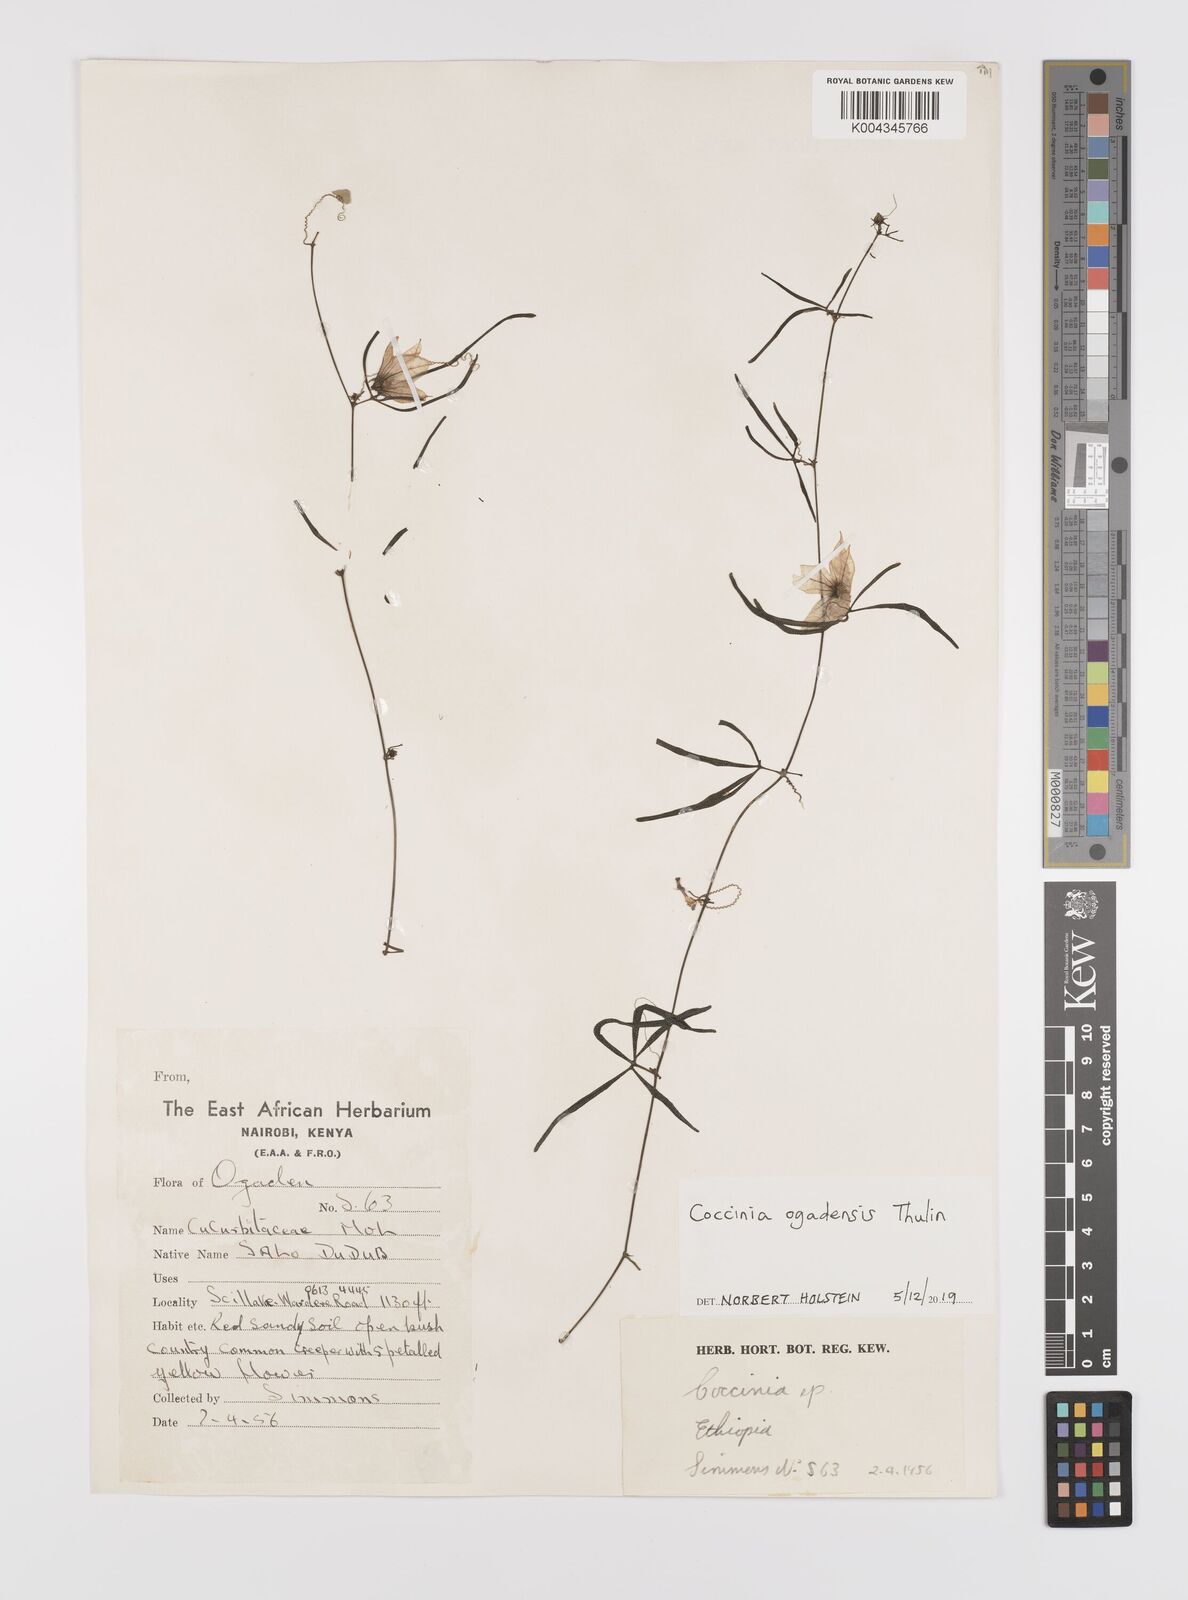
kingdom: Plantae
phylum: Tracheophyta
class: Magnoliopsida
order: Cucurbitales
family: Cucurbitaceae
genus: Coccinia
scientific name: Coccinia ogadensis
